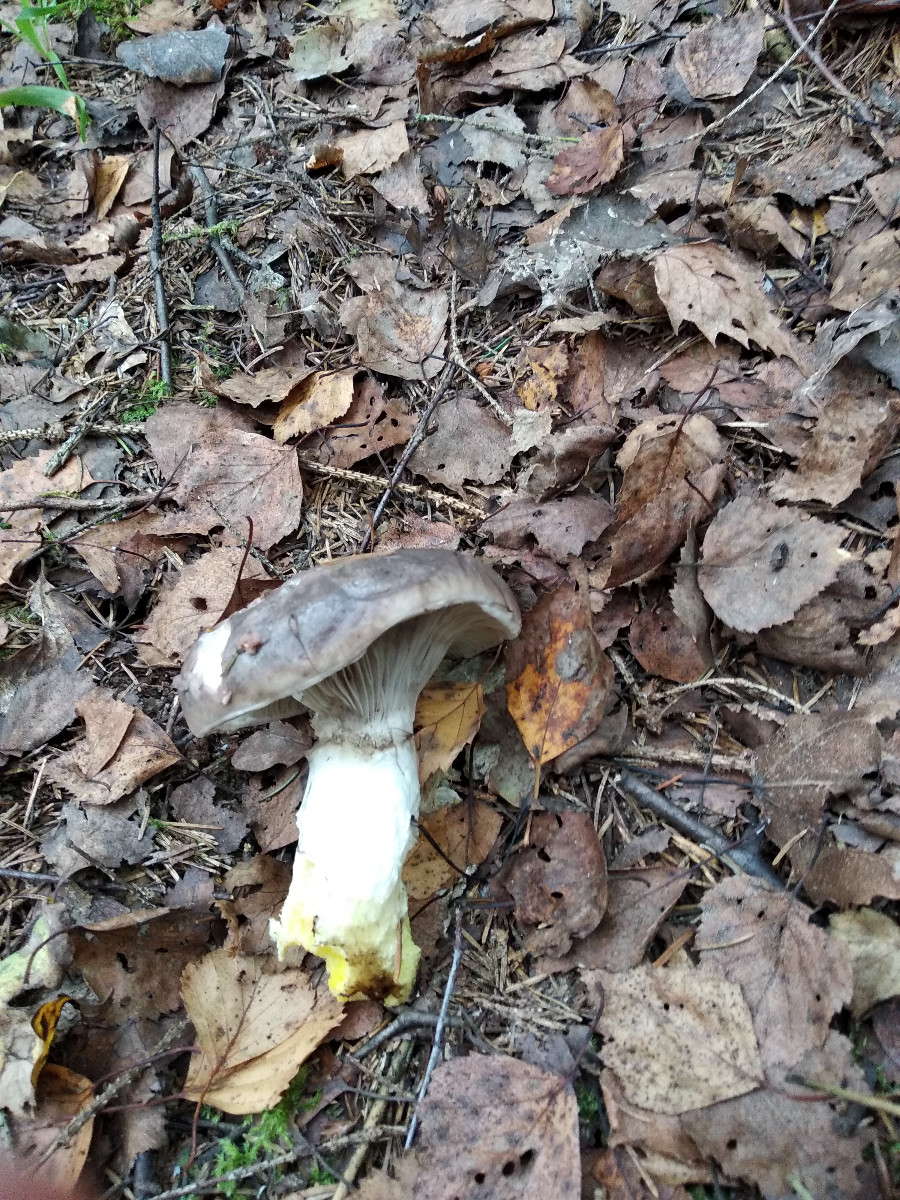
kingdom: Fungi
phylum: Basidiomycota
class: Agaricomycetes
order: Boletales
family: Gomphidiaceae
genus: Gomphidius
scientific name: Gomphidius glutinosus
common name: grå slimslør
